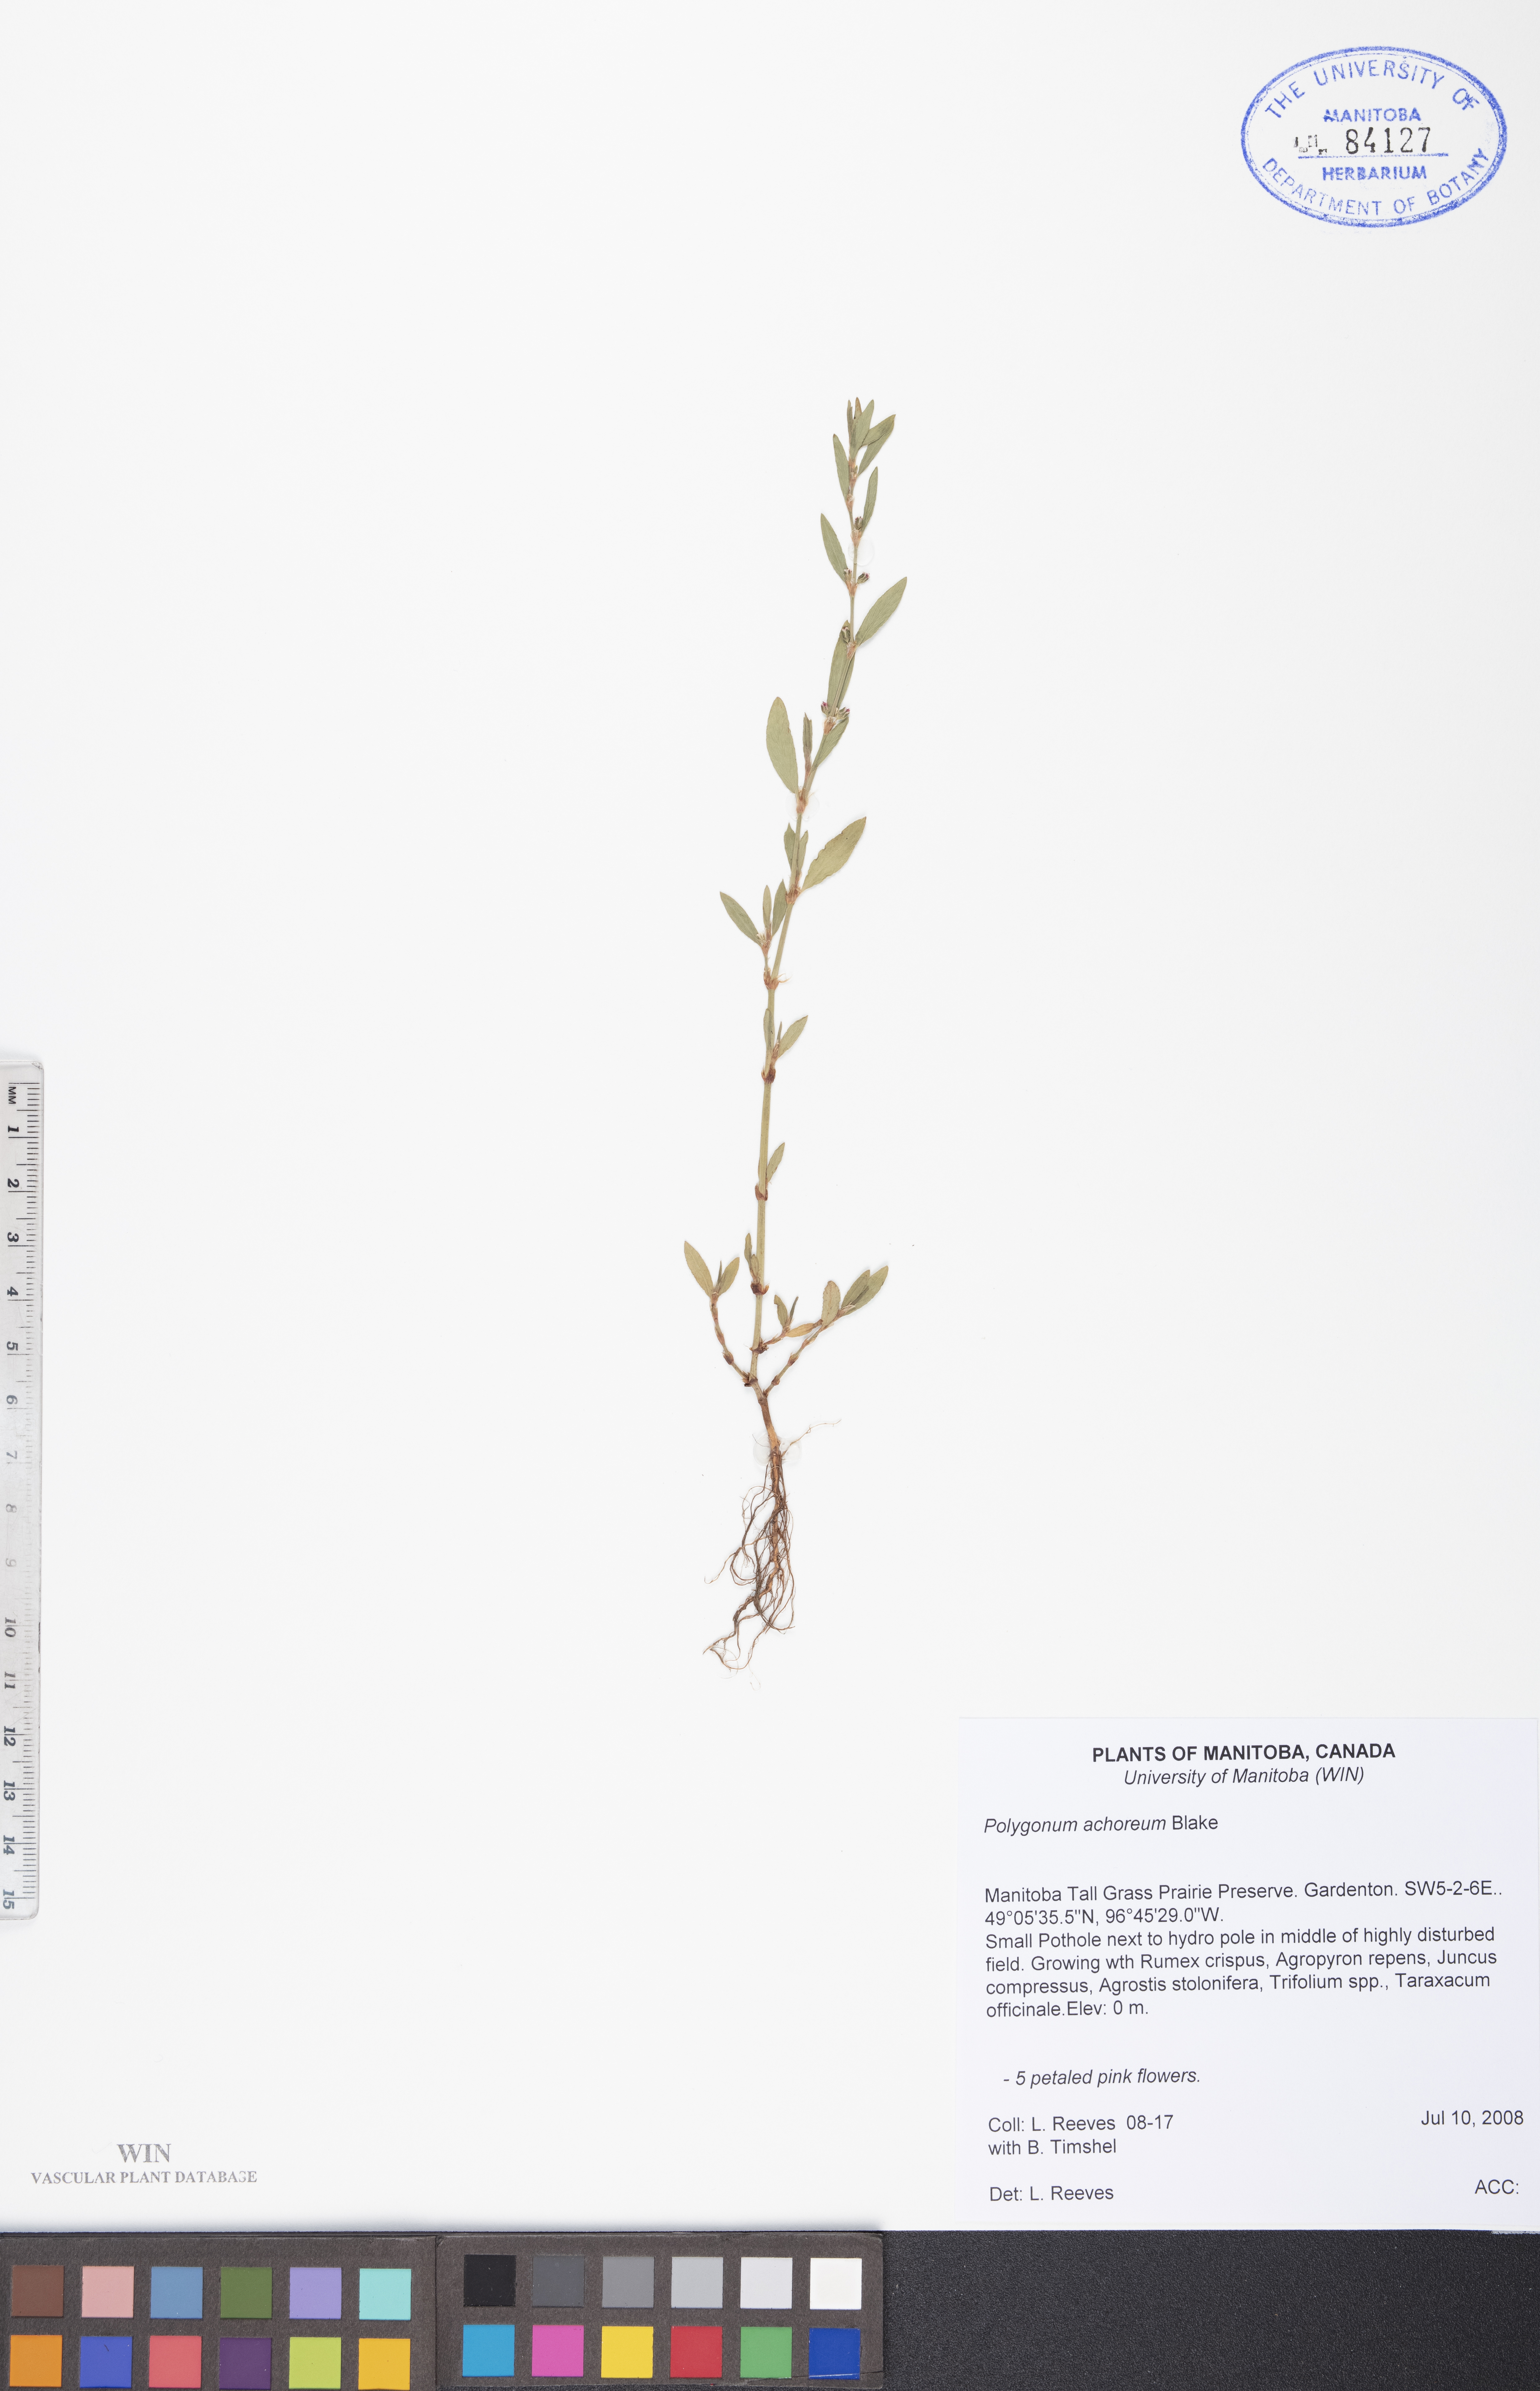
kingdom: Plantae
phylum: Tracheophyta
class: Magnoliopsida
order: Caryophyllales
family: Polygonaceae
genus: Polygonum
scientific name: Polygonum achoreum
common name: Striate knotweed
